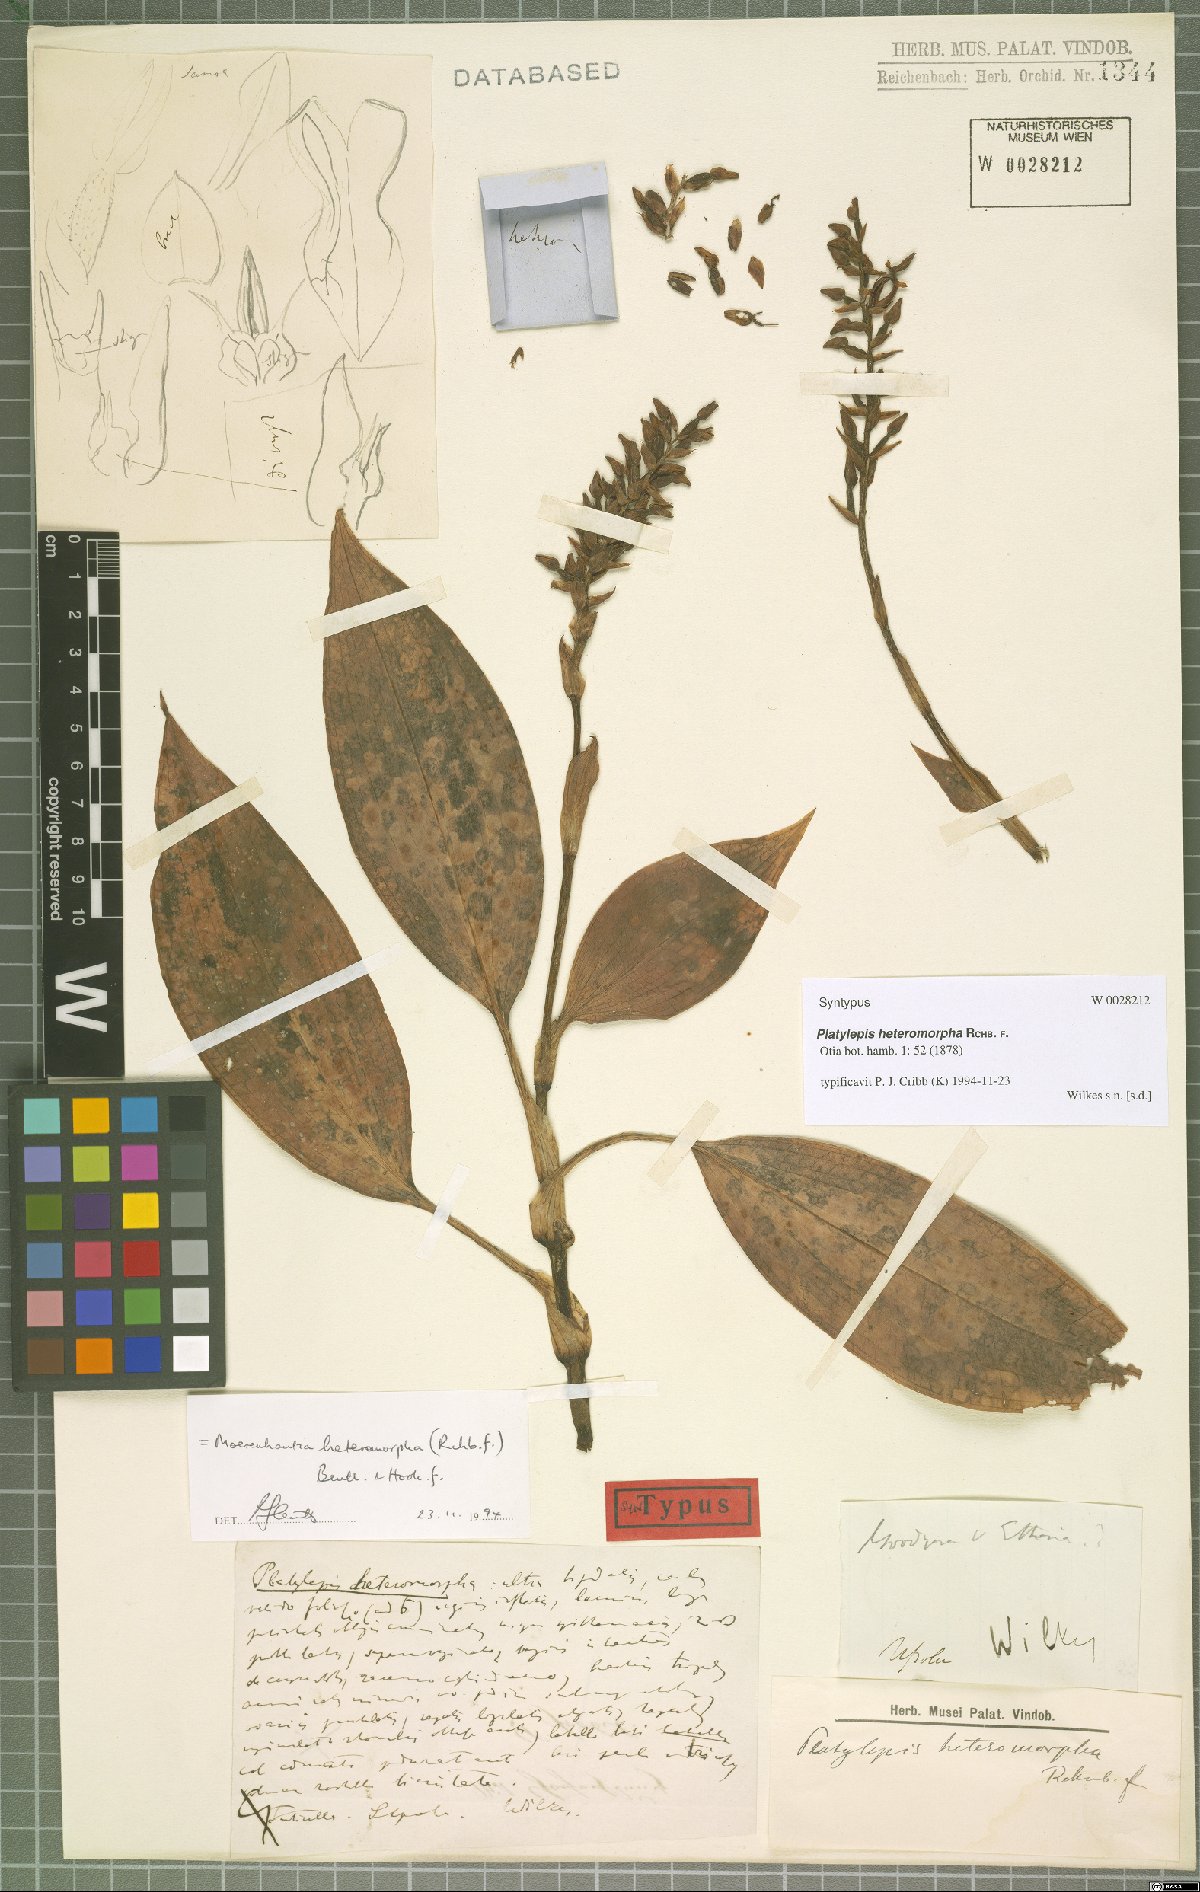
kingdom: Plantae
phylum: Tracheophyta
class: Liliopsida
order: Asparagales
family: Orchidaceae
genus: Platylepis
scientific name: Platylepis heteromorpha
